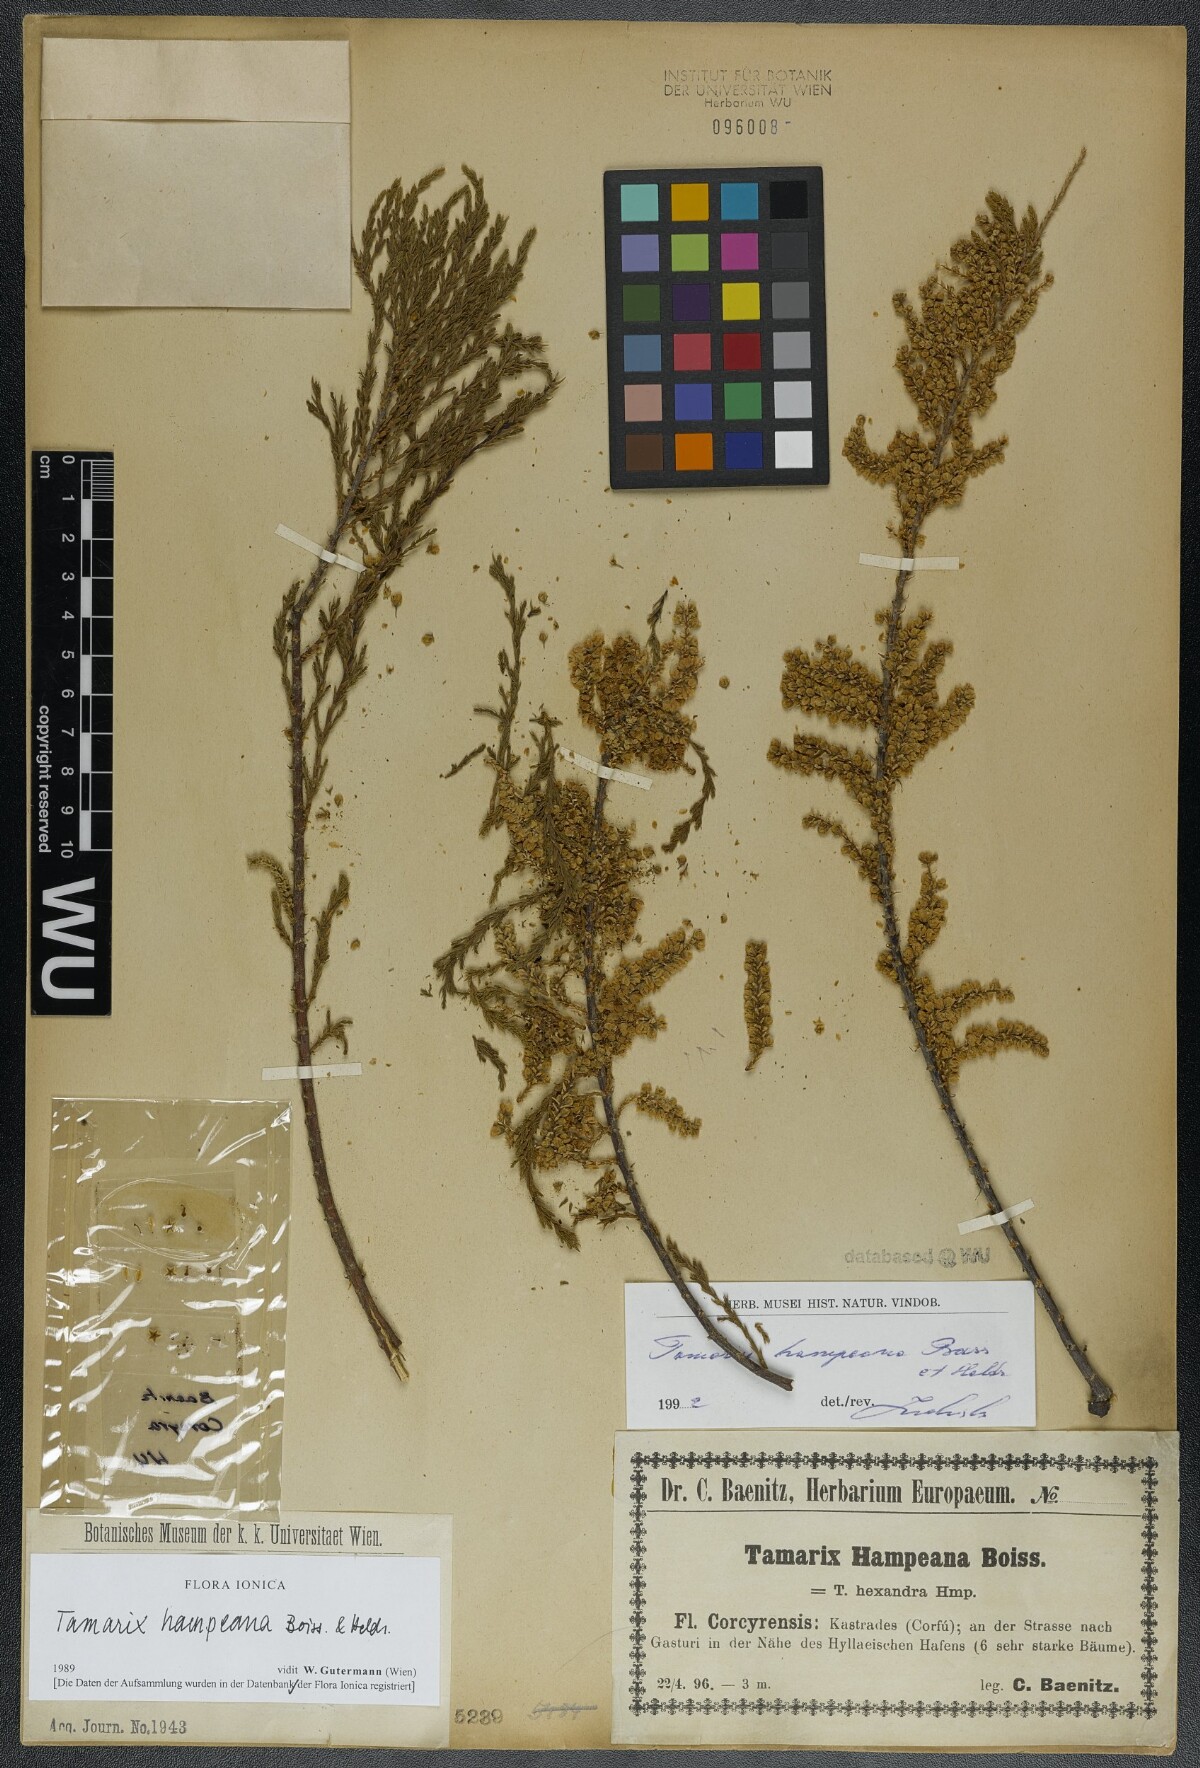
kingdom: Plantae
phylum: Tracheophyta
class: Magnoliopsida
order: Caryophyllales
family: Tamaricaceae
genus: Tamarix
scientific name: Tamarix hampeana
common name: Hampe’s tamarisk
